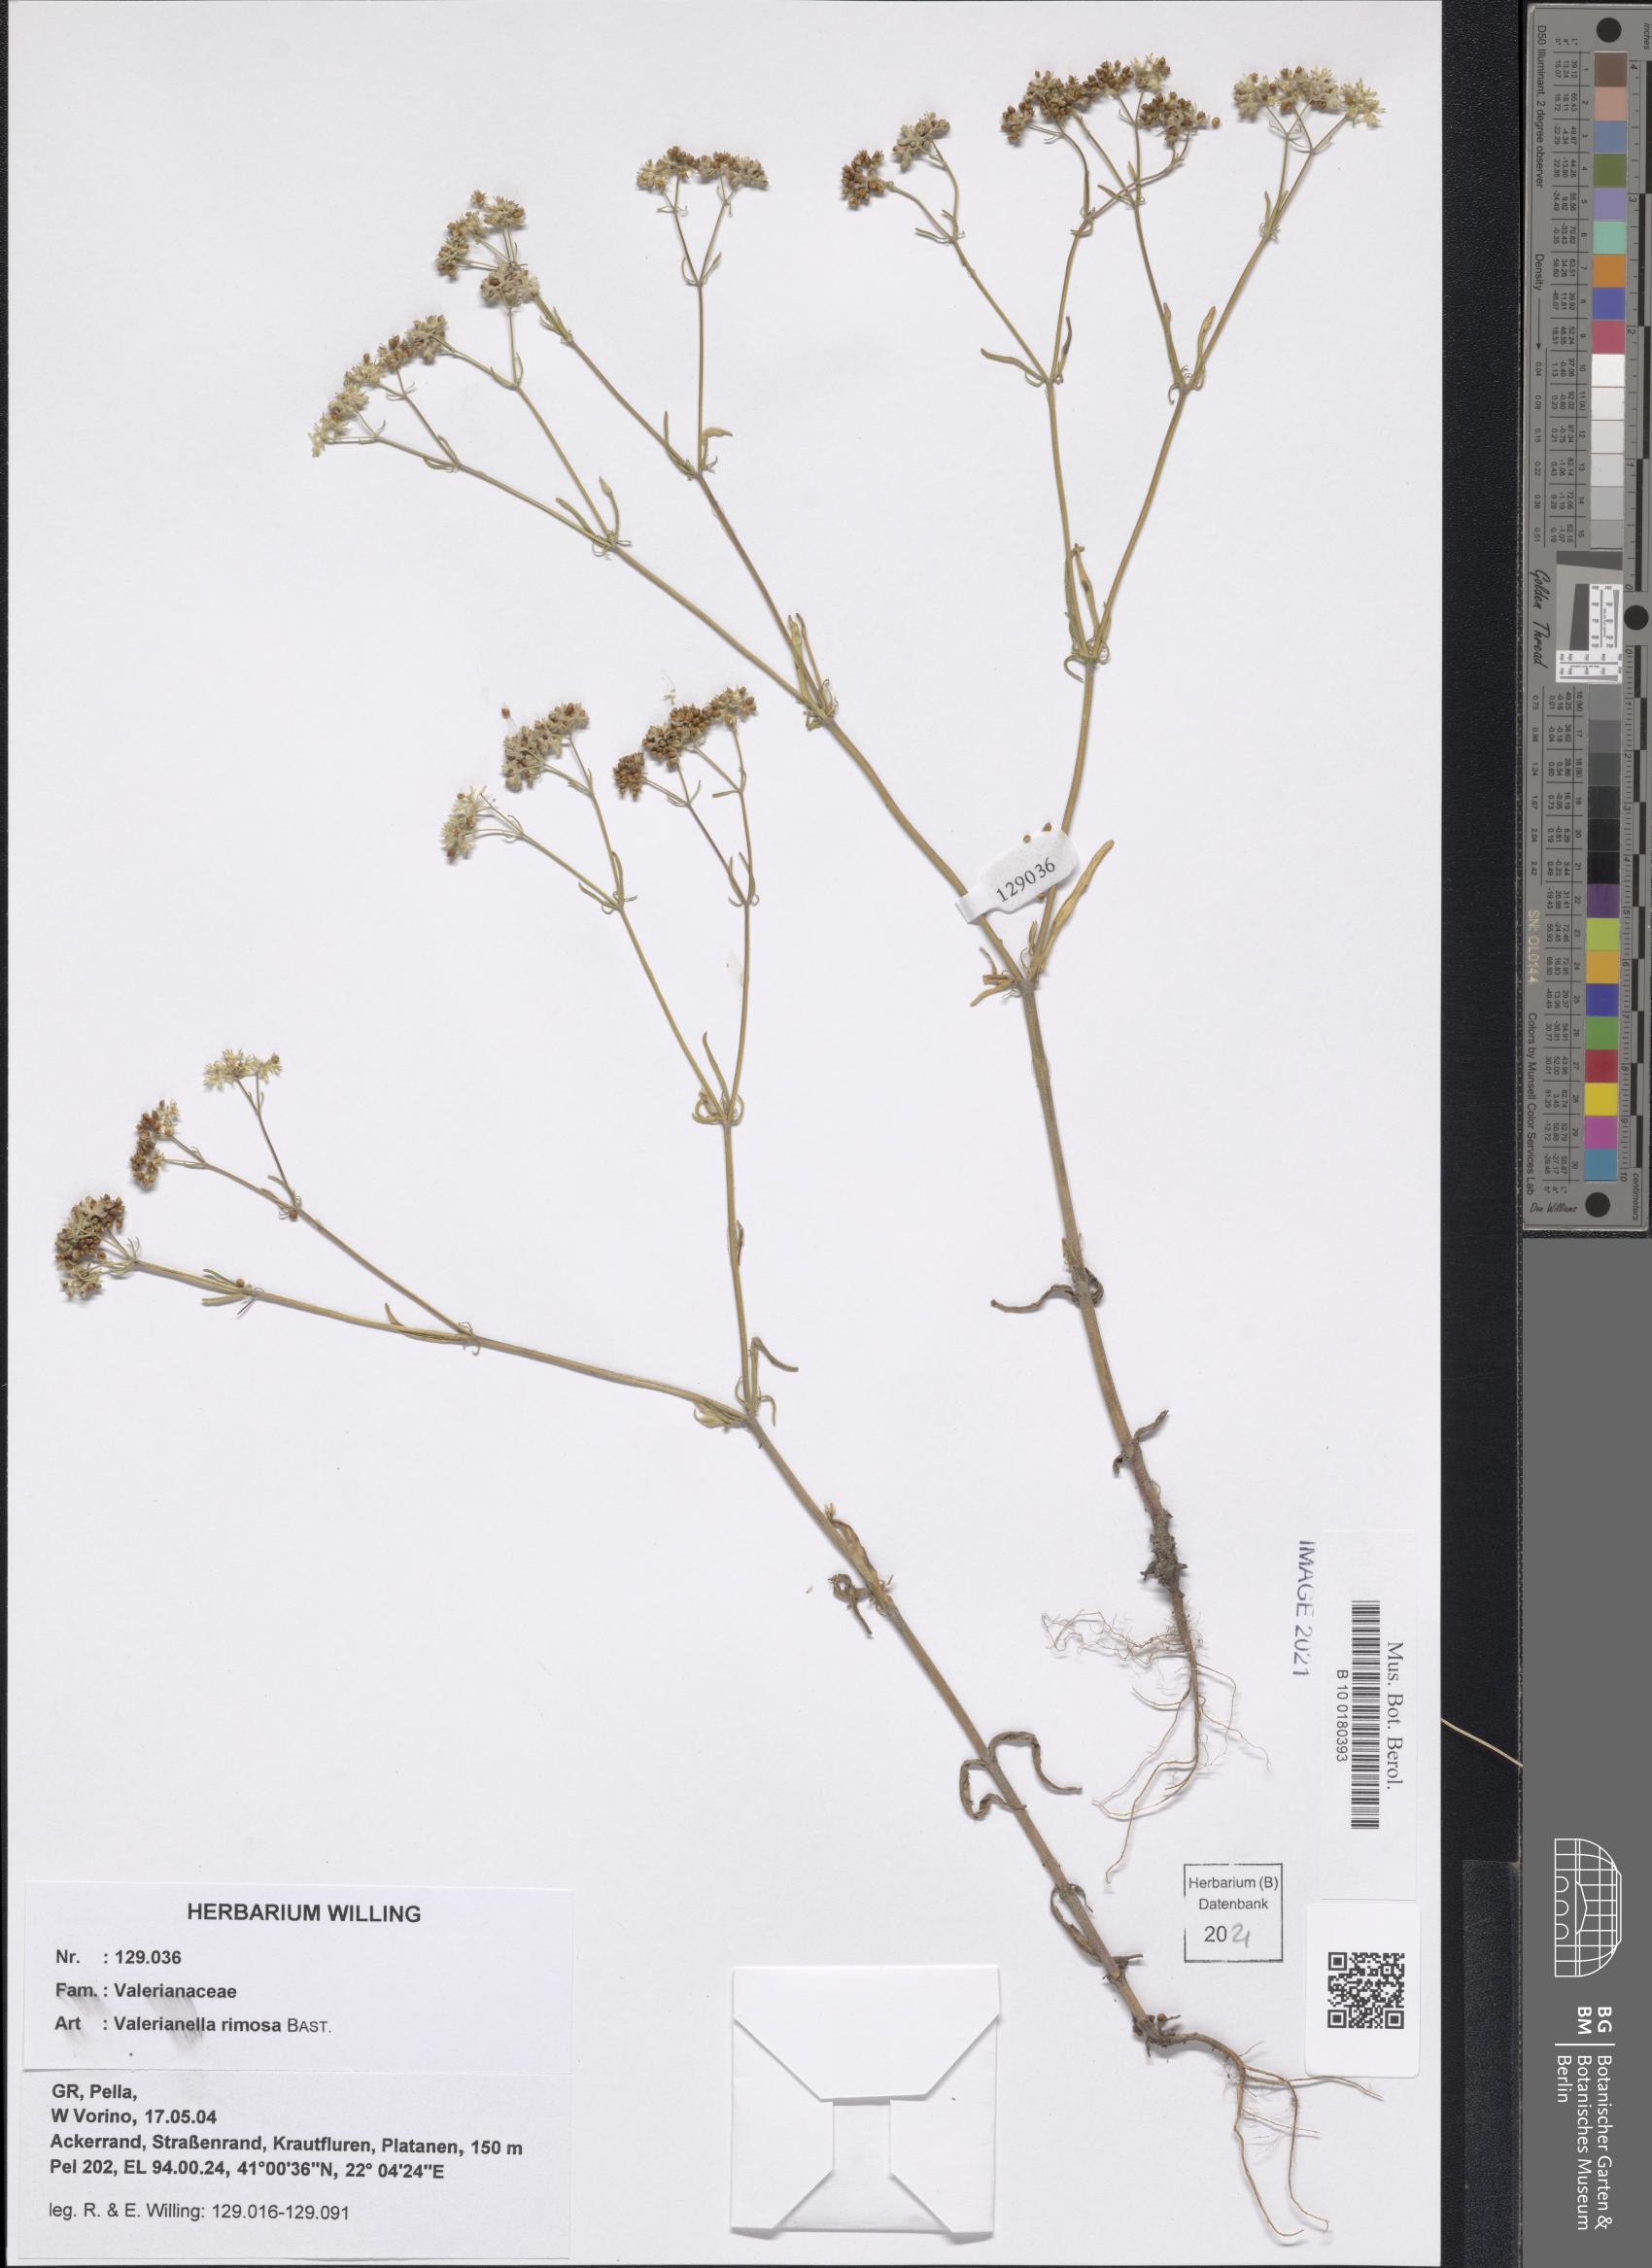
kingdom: Plantae
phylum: Tracheophyta
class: Magnoliopsida
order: Dipsacales
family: Caprifoliaceae
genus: Valerianella
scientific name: Valerianella rimosa
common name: Broad-fruited cornsalad
